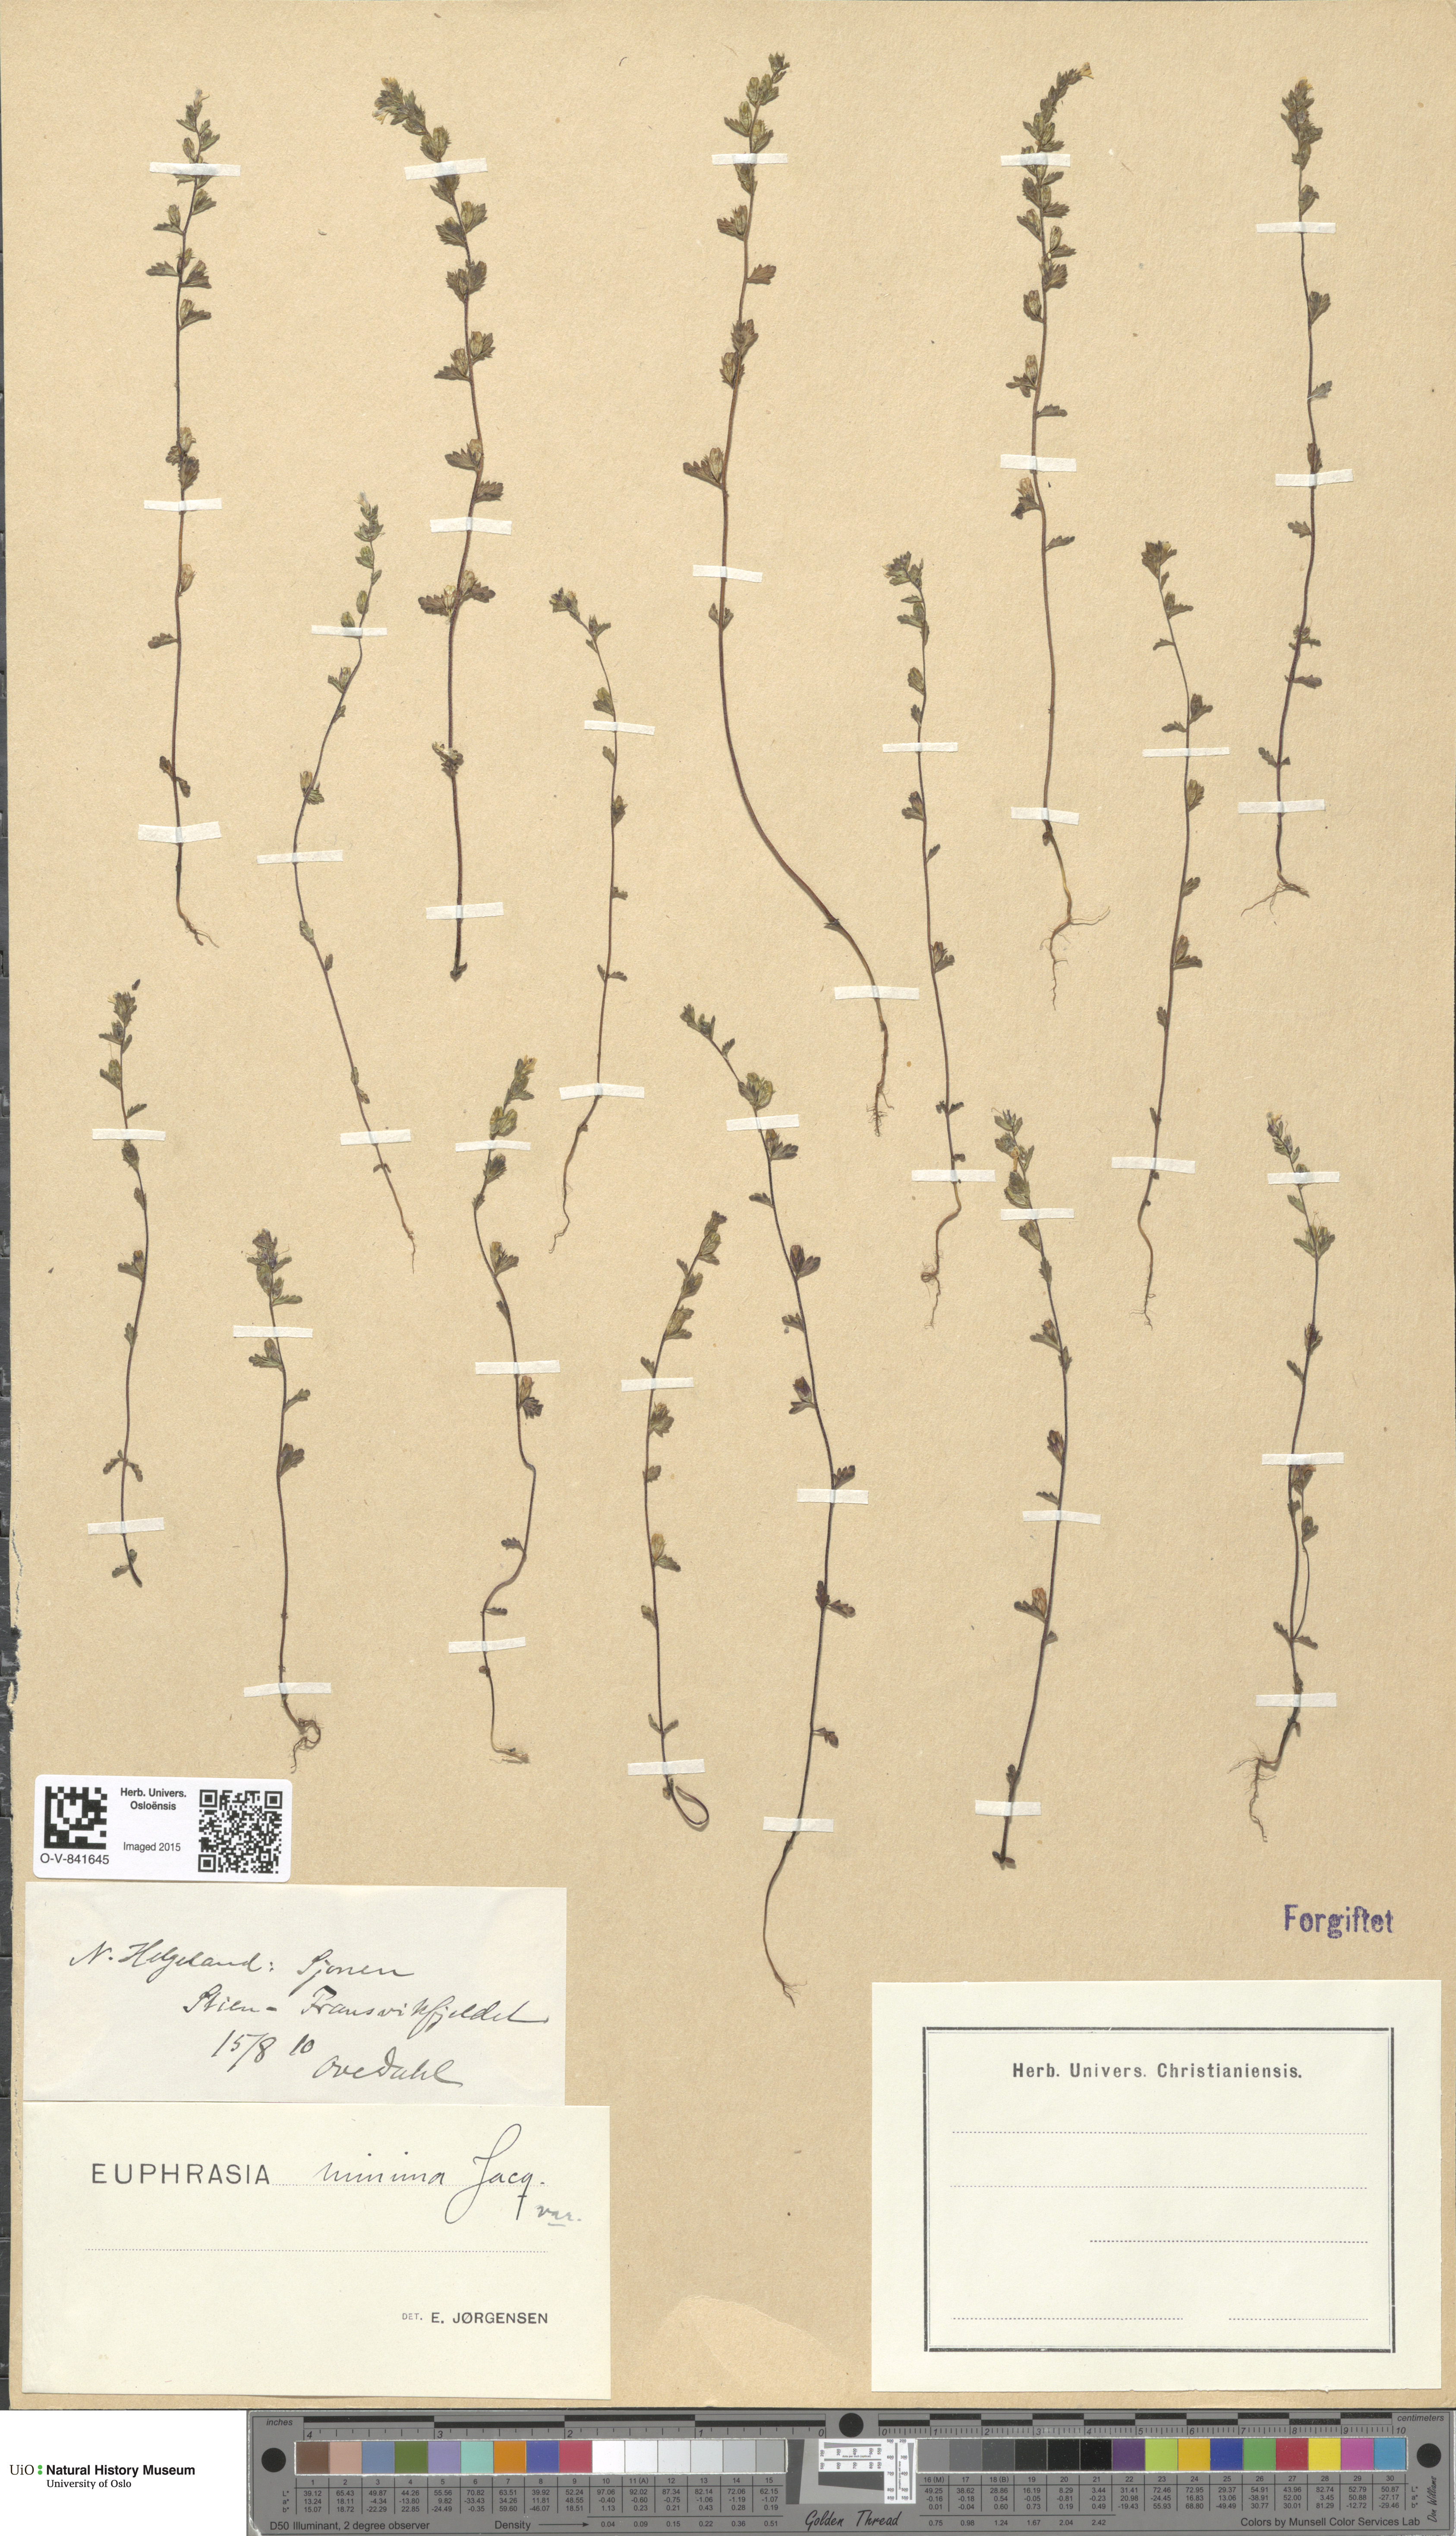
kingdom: Plantae
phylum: Tracheophyta
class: Magnoliopsida
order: Lamiales
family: Orobanchaceae
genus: Euphrasia
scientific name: Euphrasia wettsteinii
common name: Wettstein's eyebright
